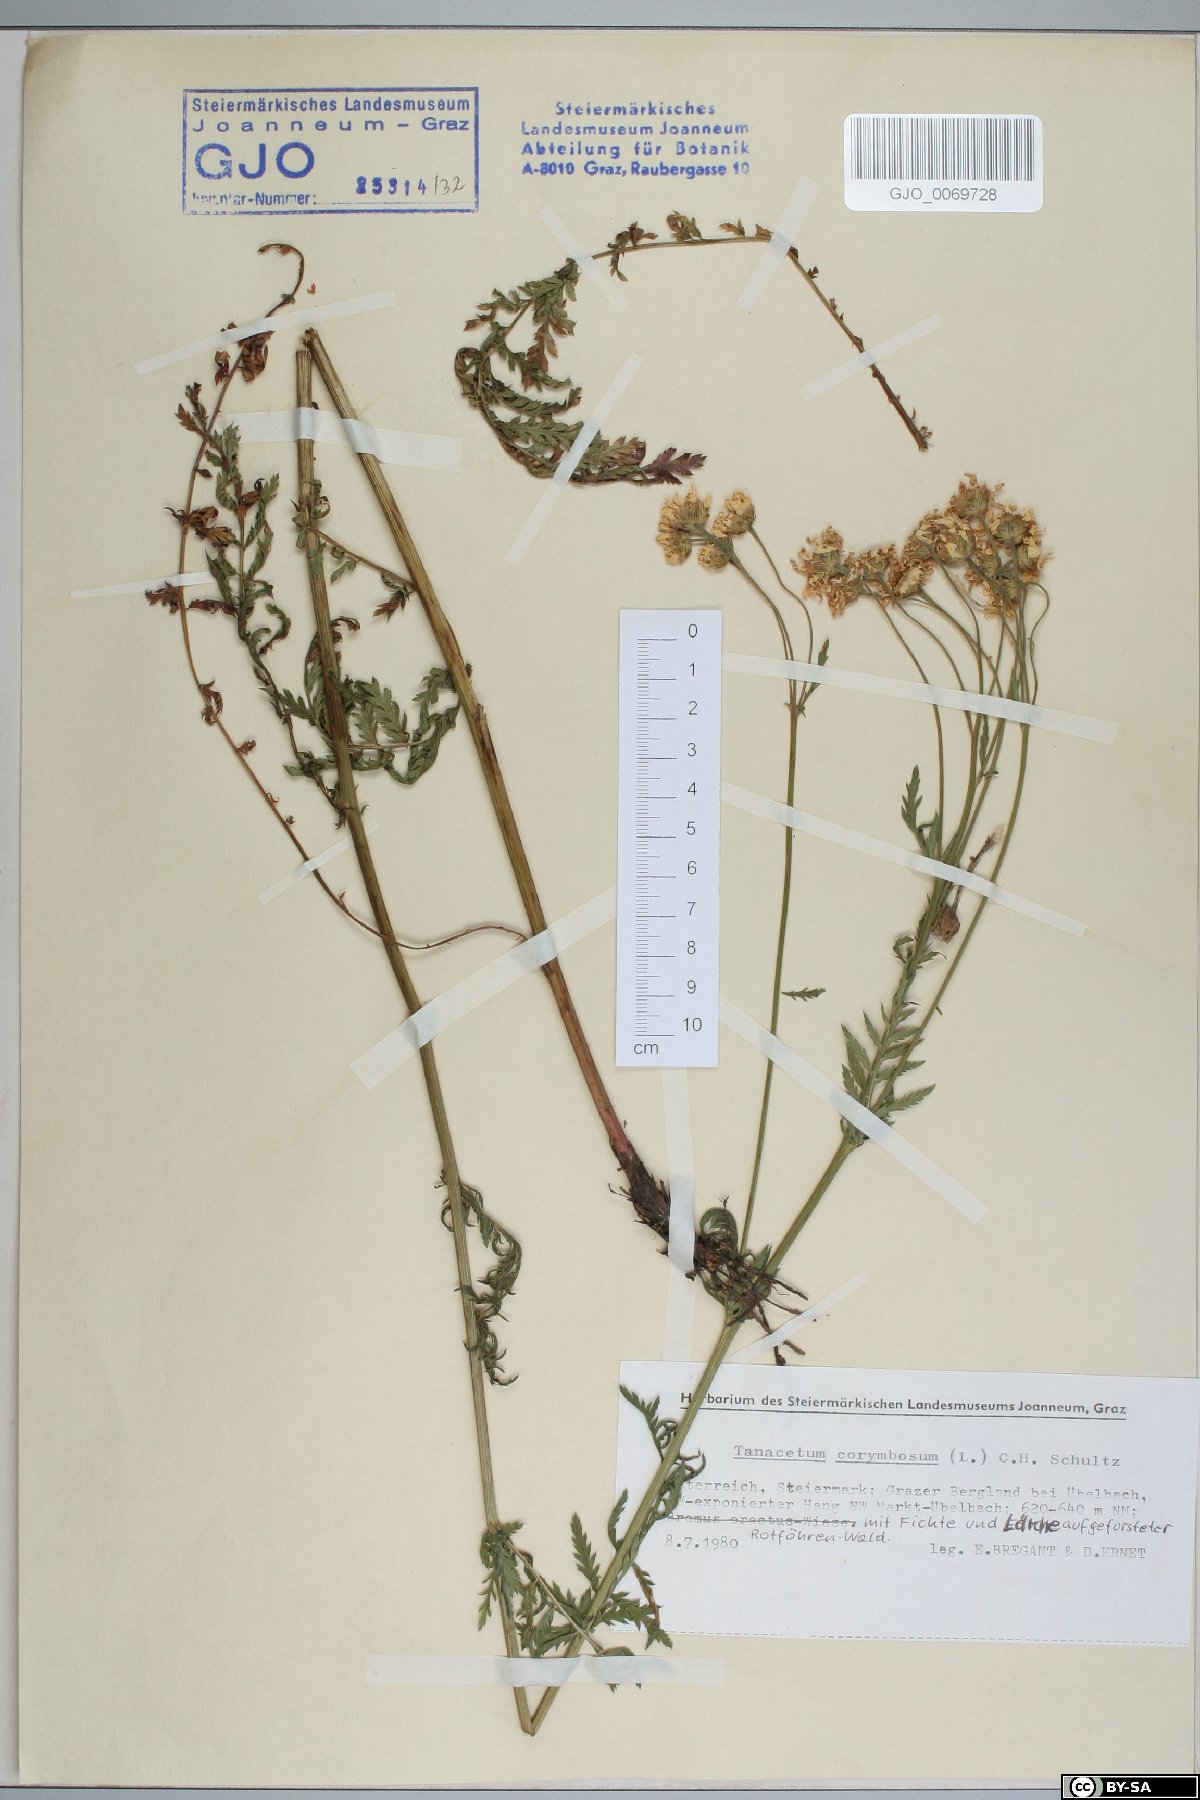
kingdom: Plantae
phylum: Tracheophyta
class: Magnoliopsida
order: Asterales
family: Asteraceae
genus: Tanacetum
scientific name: Tanacetum corymbosum
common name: Scentless feverfew
